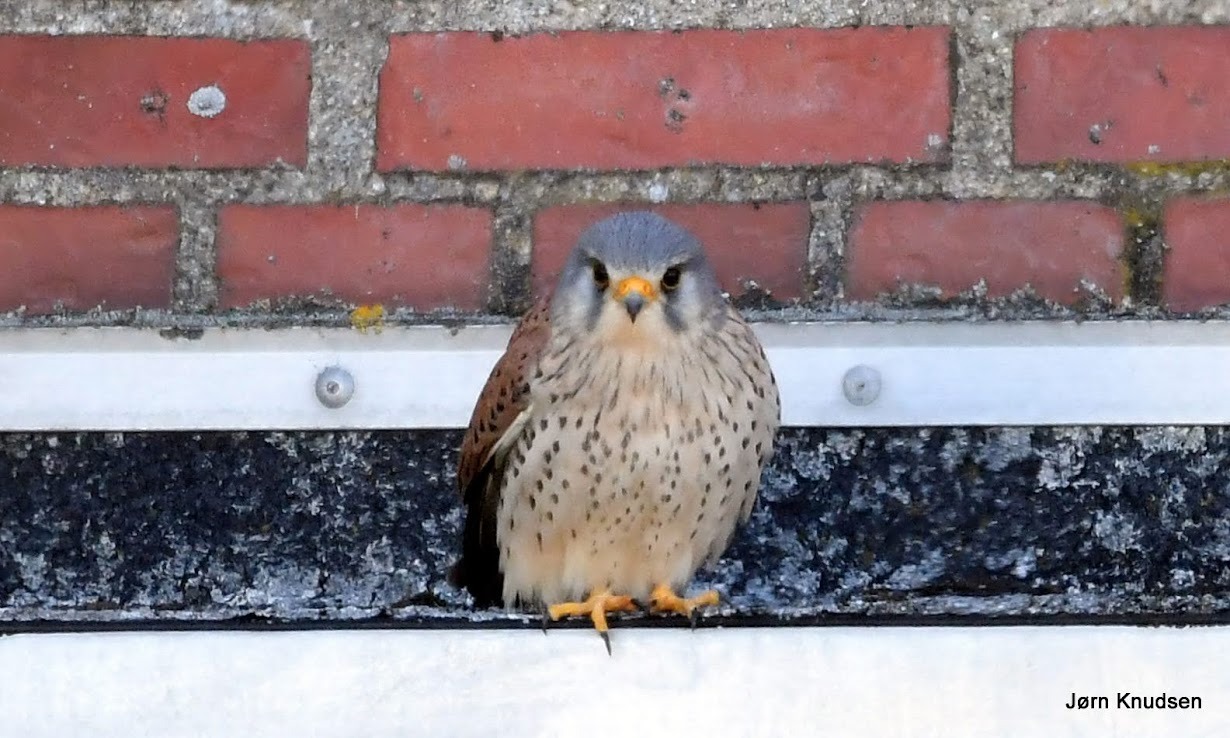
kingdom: Animalia
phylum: Chordata
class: Aves
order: Falconiformes
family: Falconidae
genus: Falco
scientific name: Falco tinnunculus
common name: Tårnfalk
